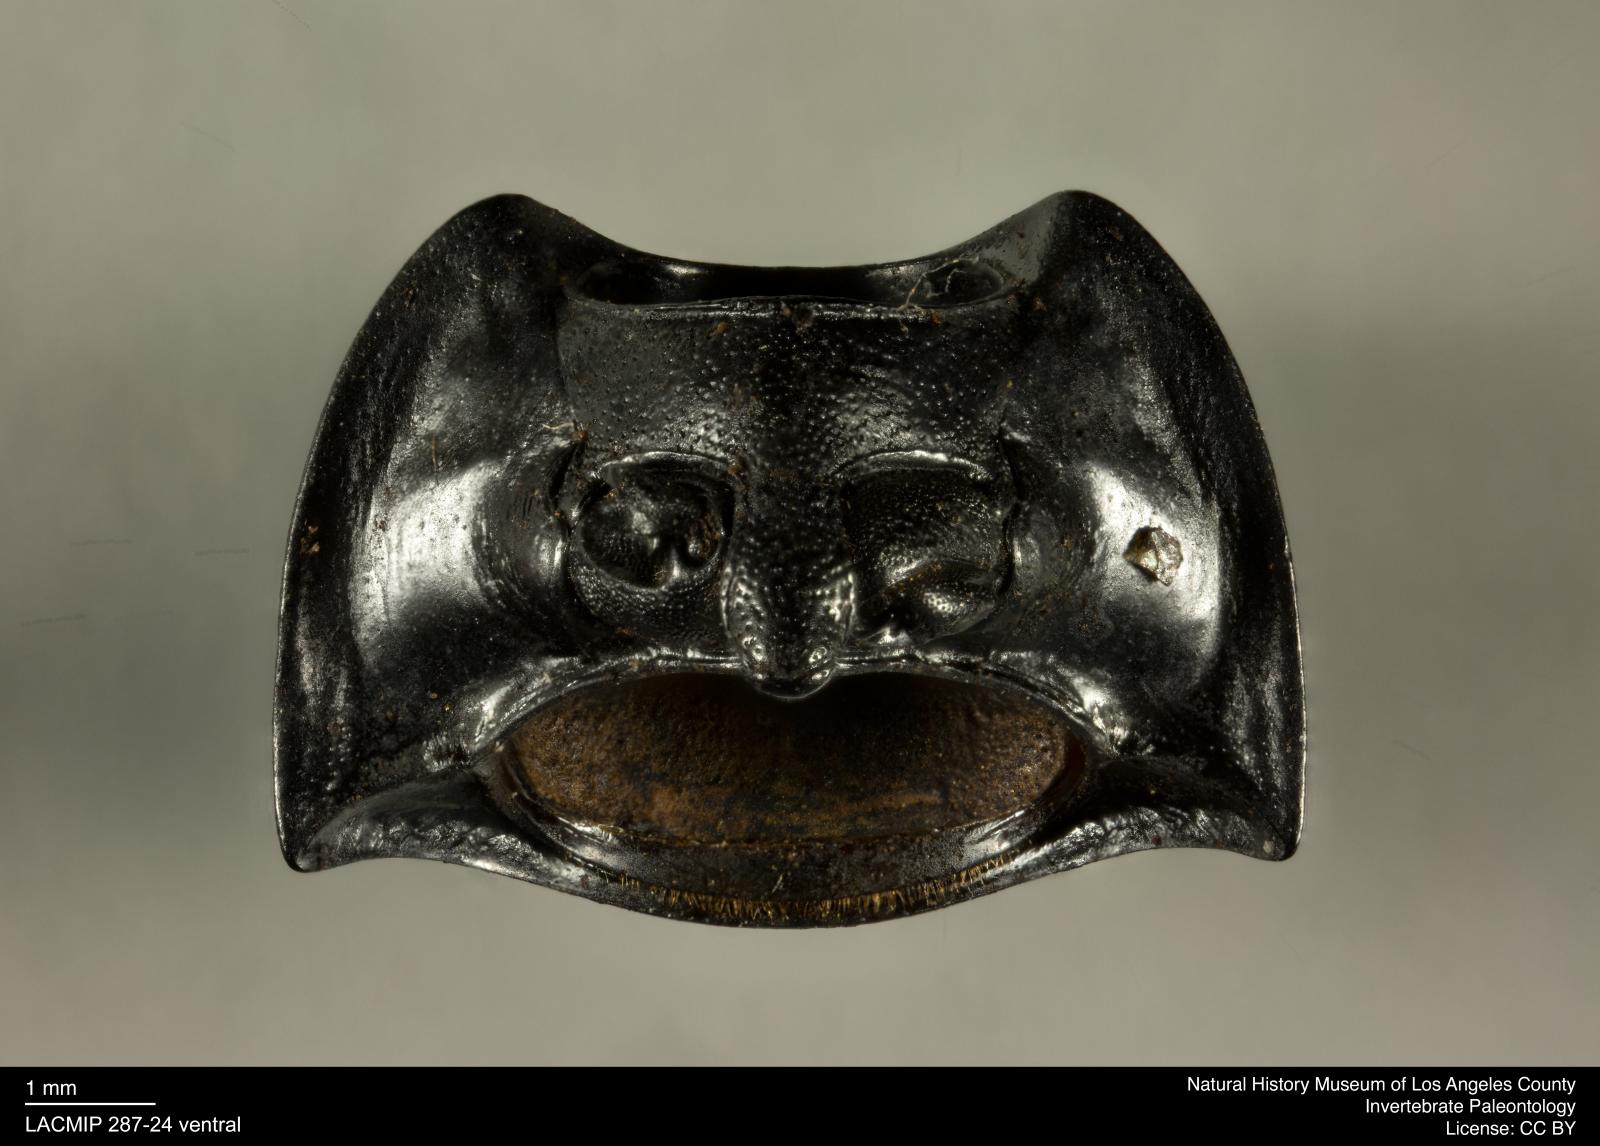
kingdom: Animalia
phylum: Arthropoda
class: Insecta
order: Coleoptera
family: Tenebrionidae
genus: Coniontis
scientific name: Coniontis abdominalis
